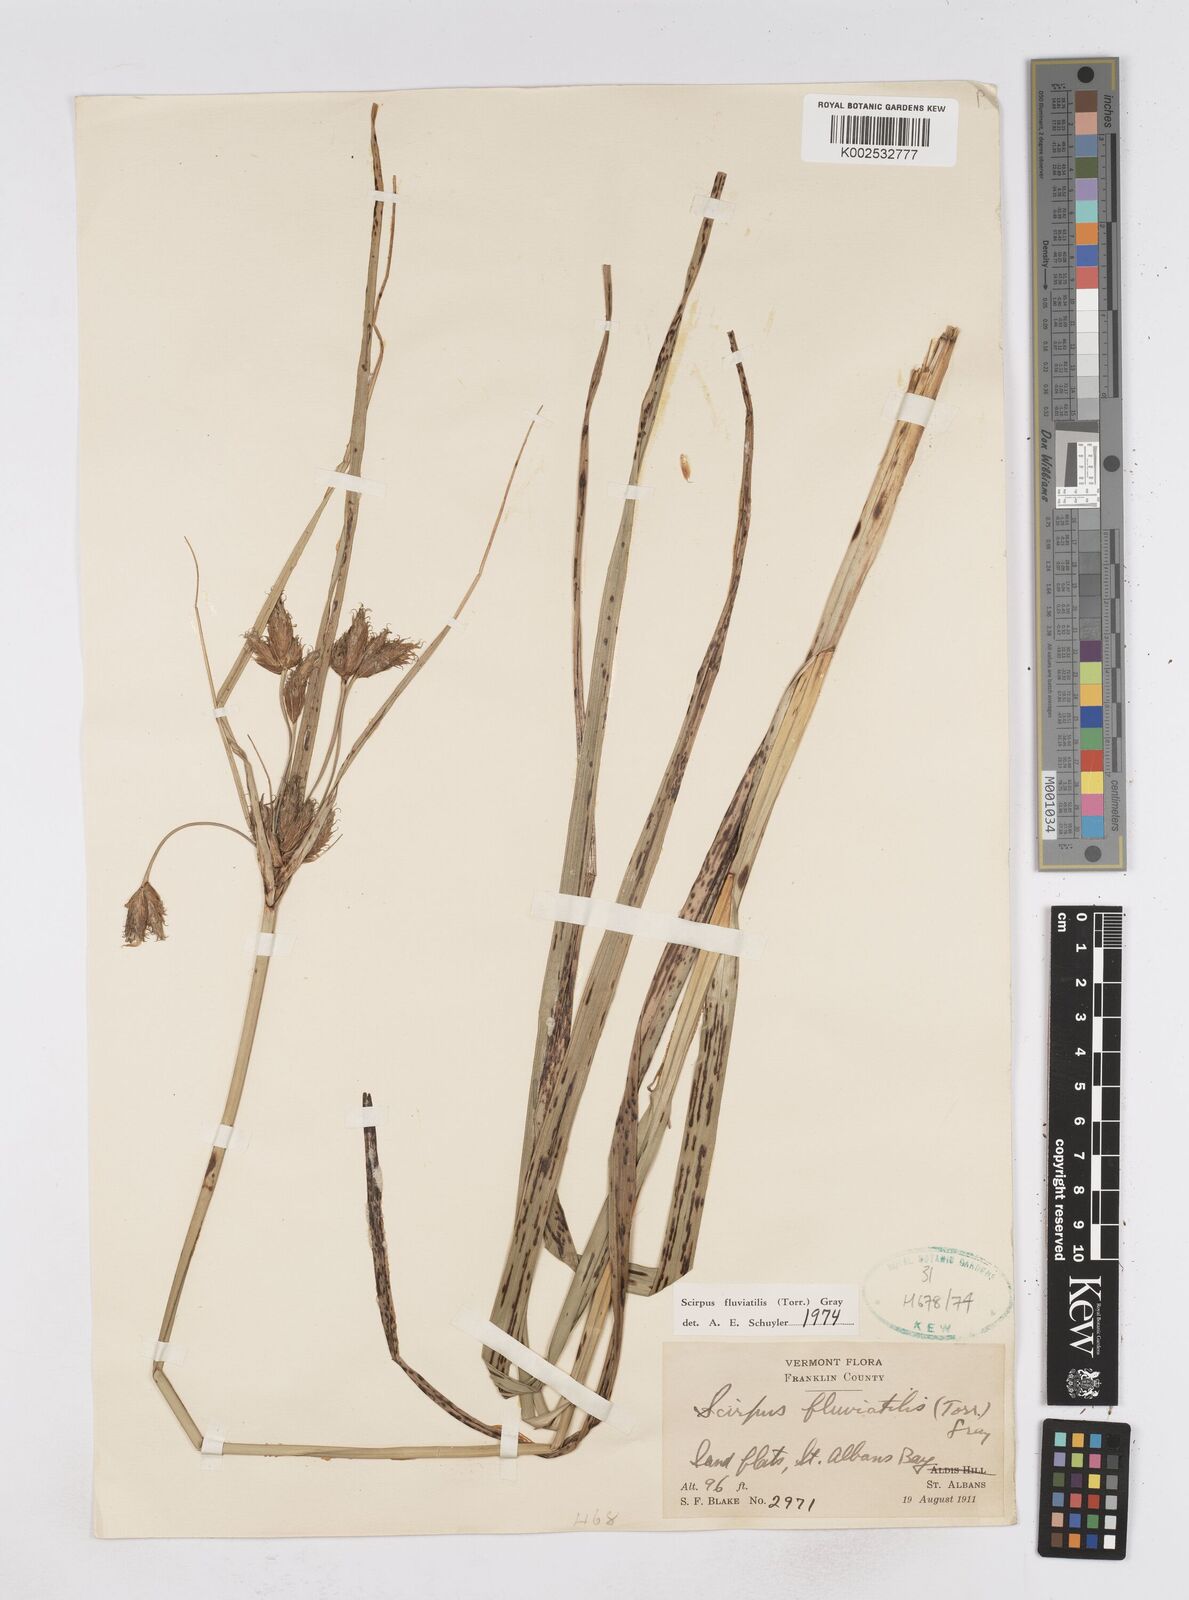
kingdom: Plantae
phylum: Tracheophyta
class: Liliopsida
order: Poales
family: Cyperaceae
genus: Bolboschoenus
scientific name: Bolboschoenus
